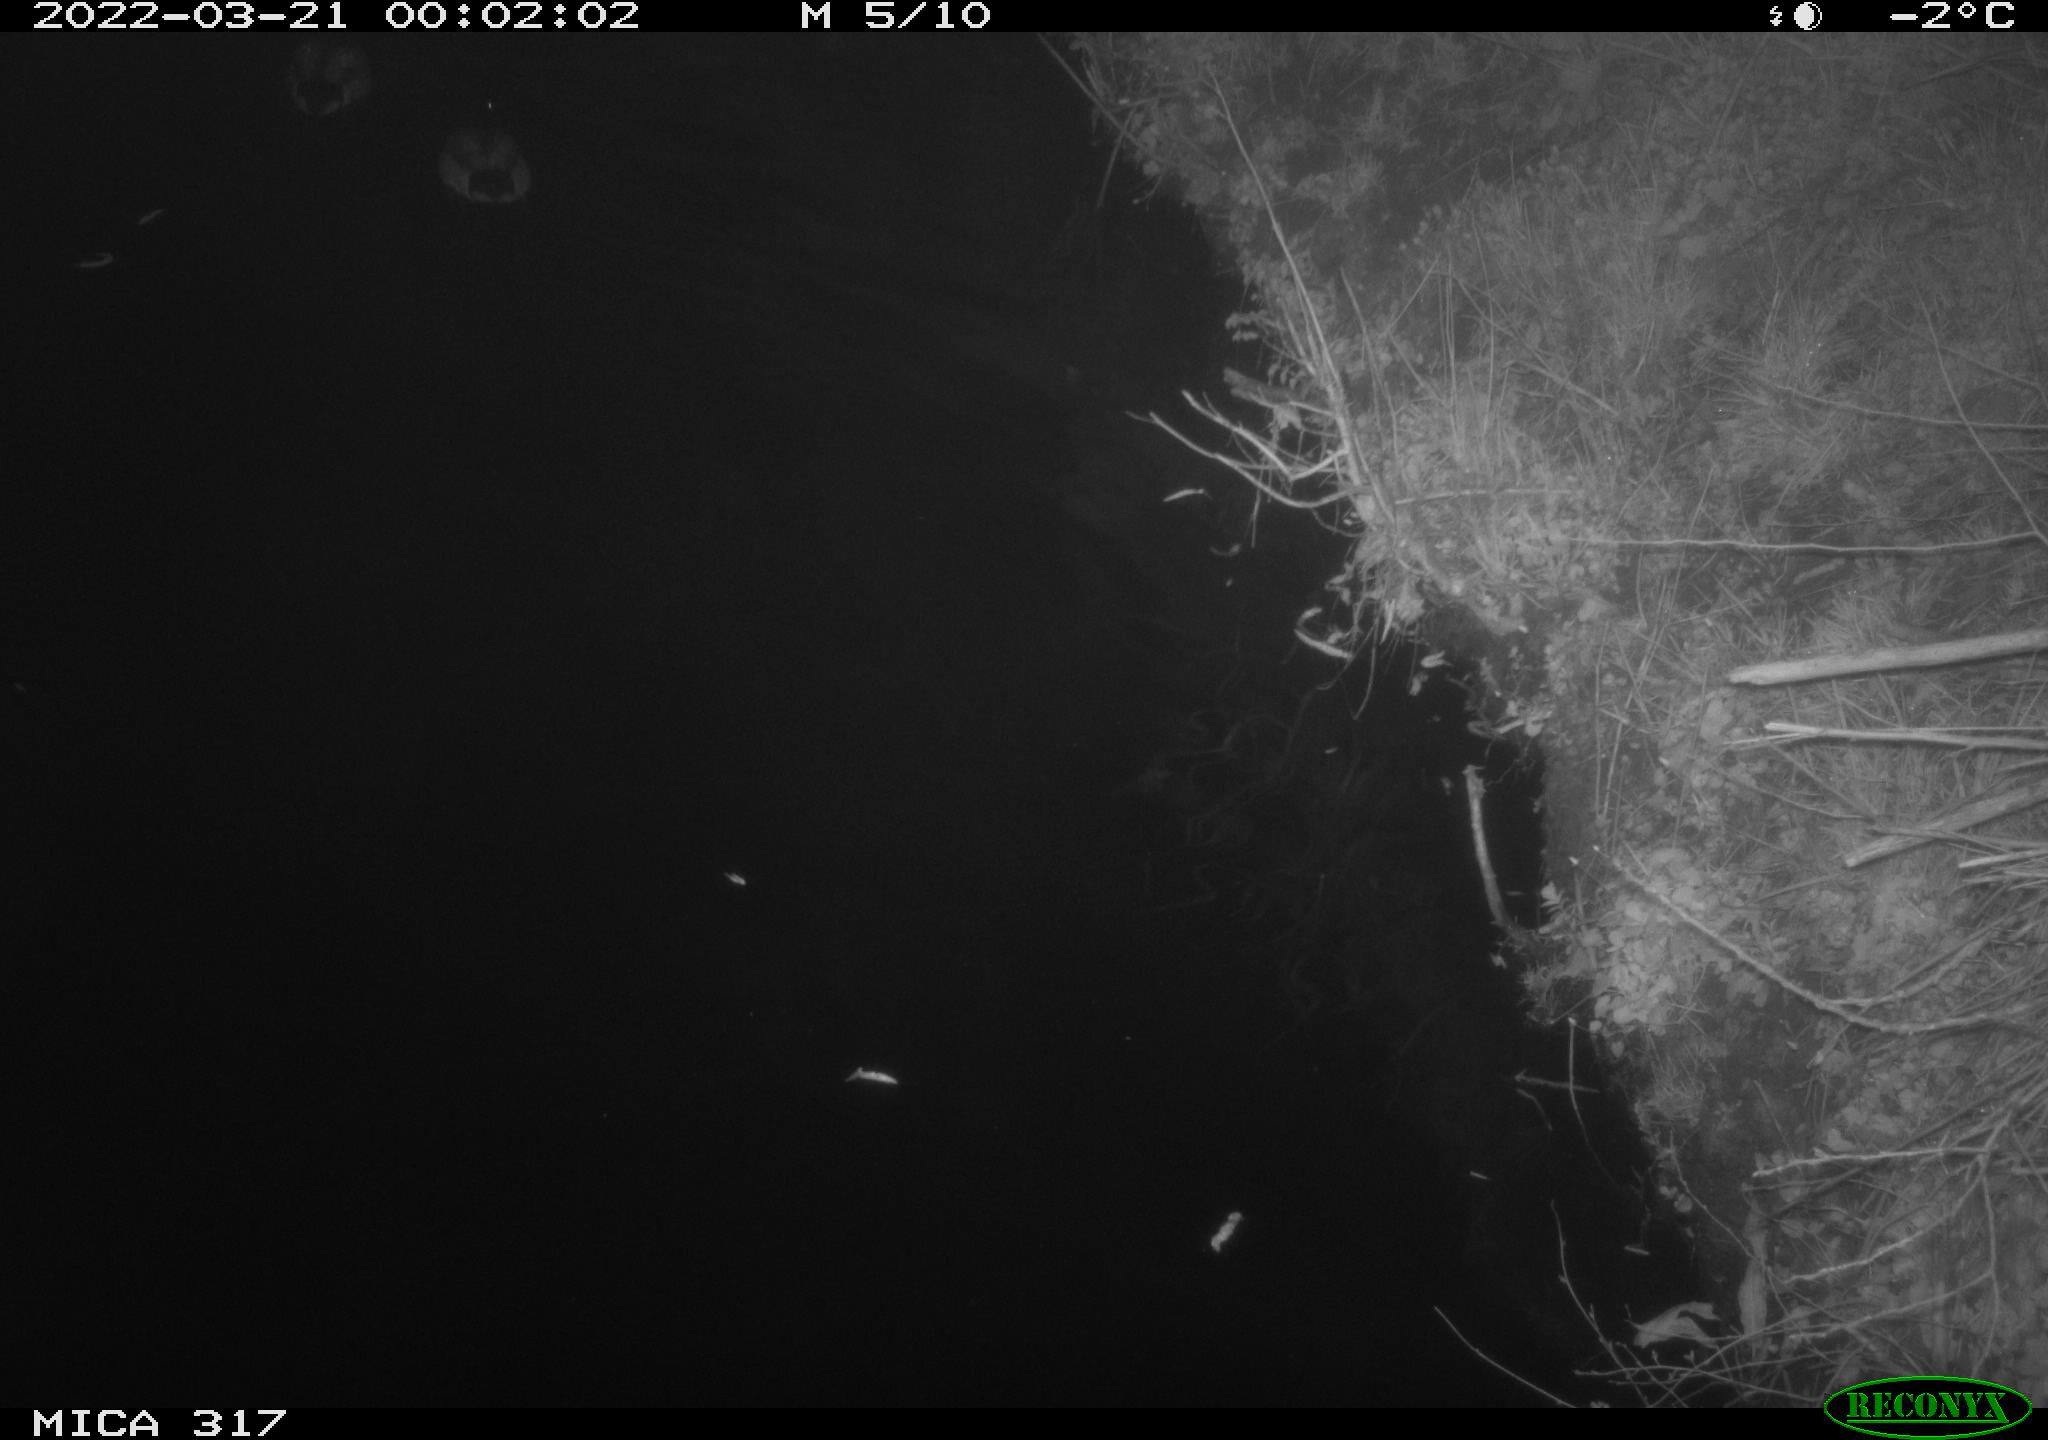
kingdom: Animalia
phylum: Chordata
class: Aves
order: Anseriformes
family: Anatidae
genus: Anas
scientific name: Anas platyrhynchos
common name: Mallard
